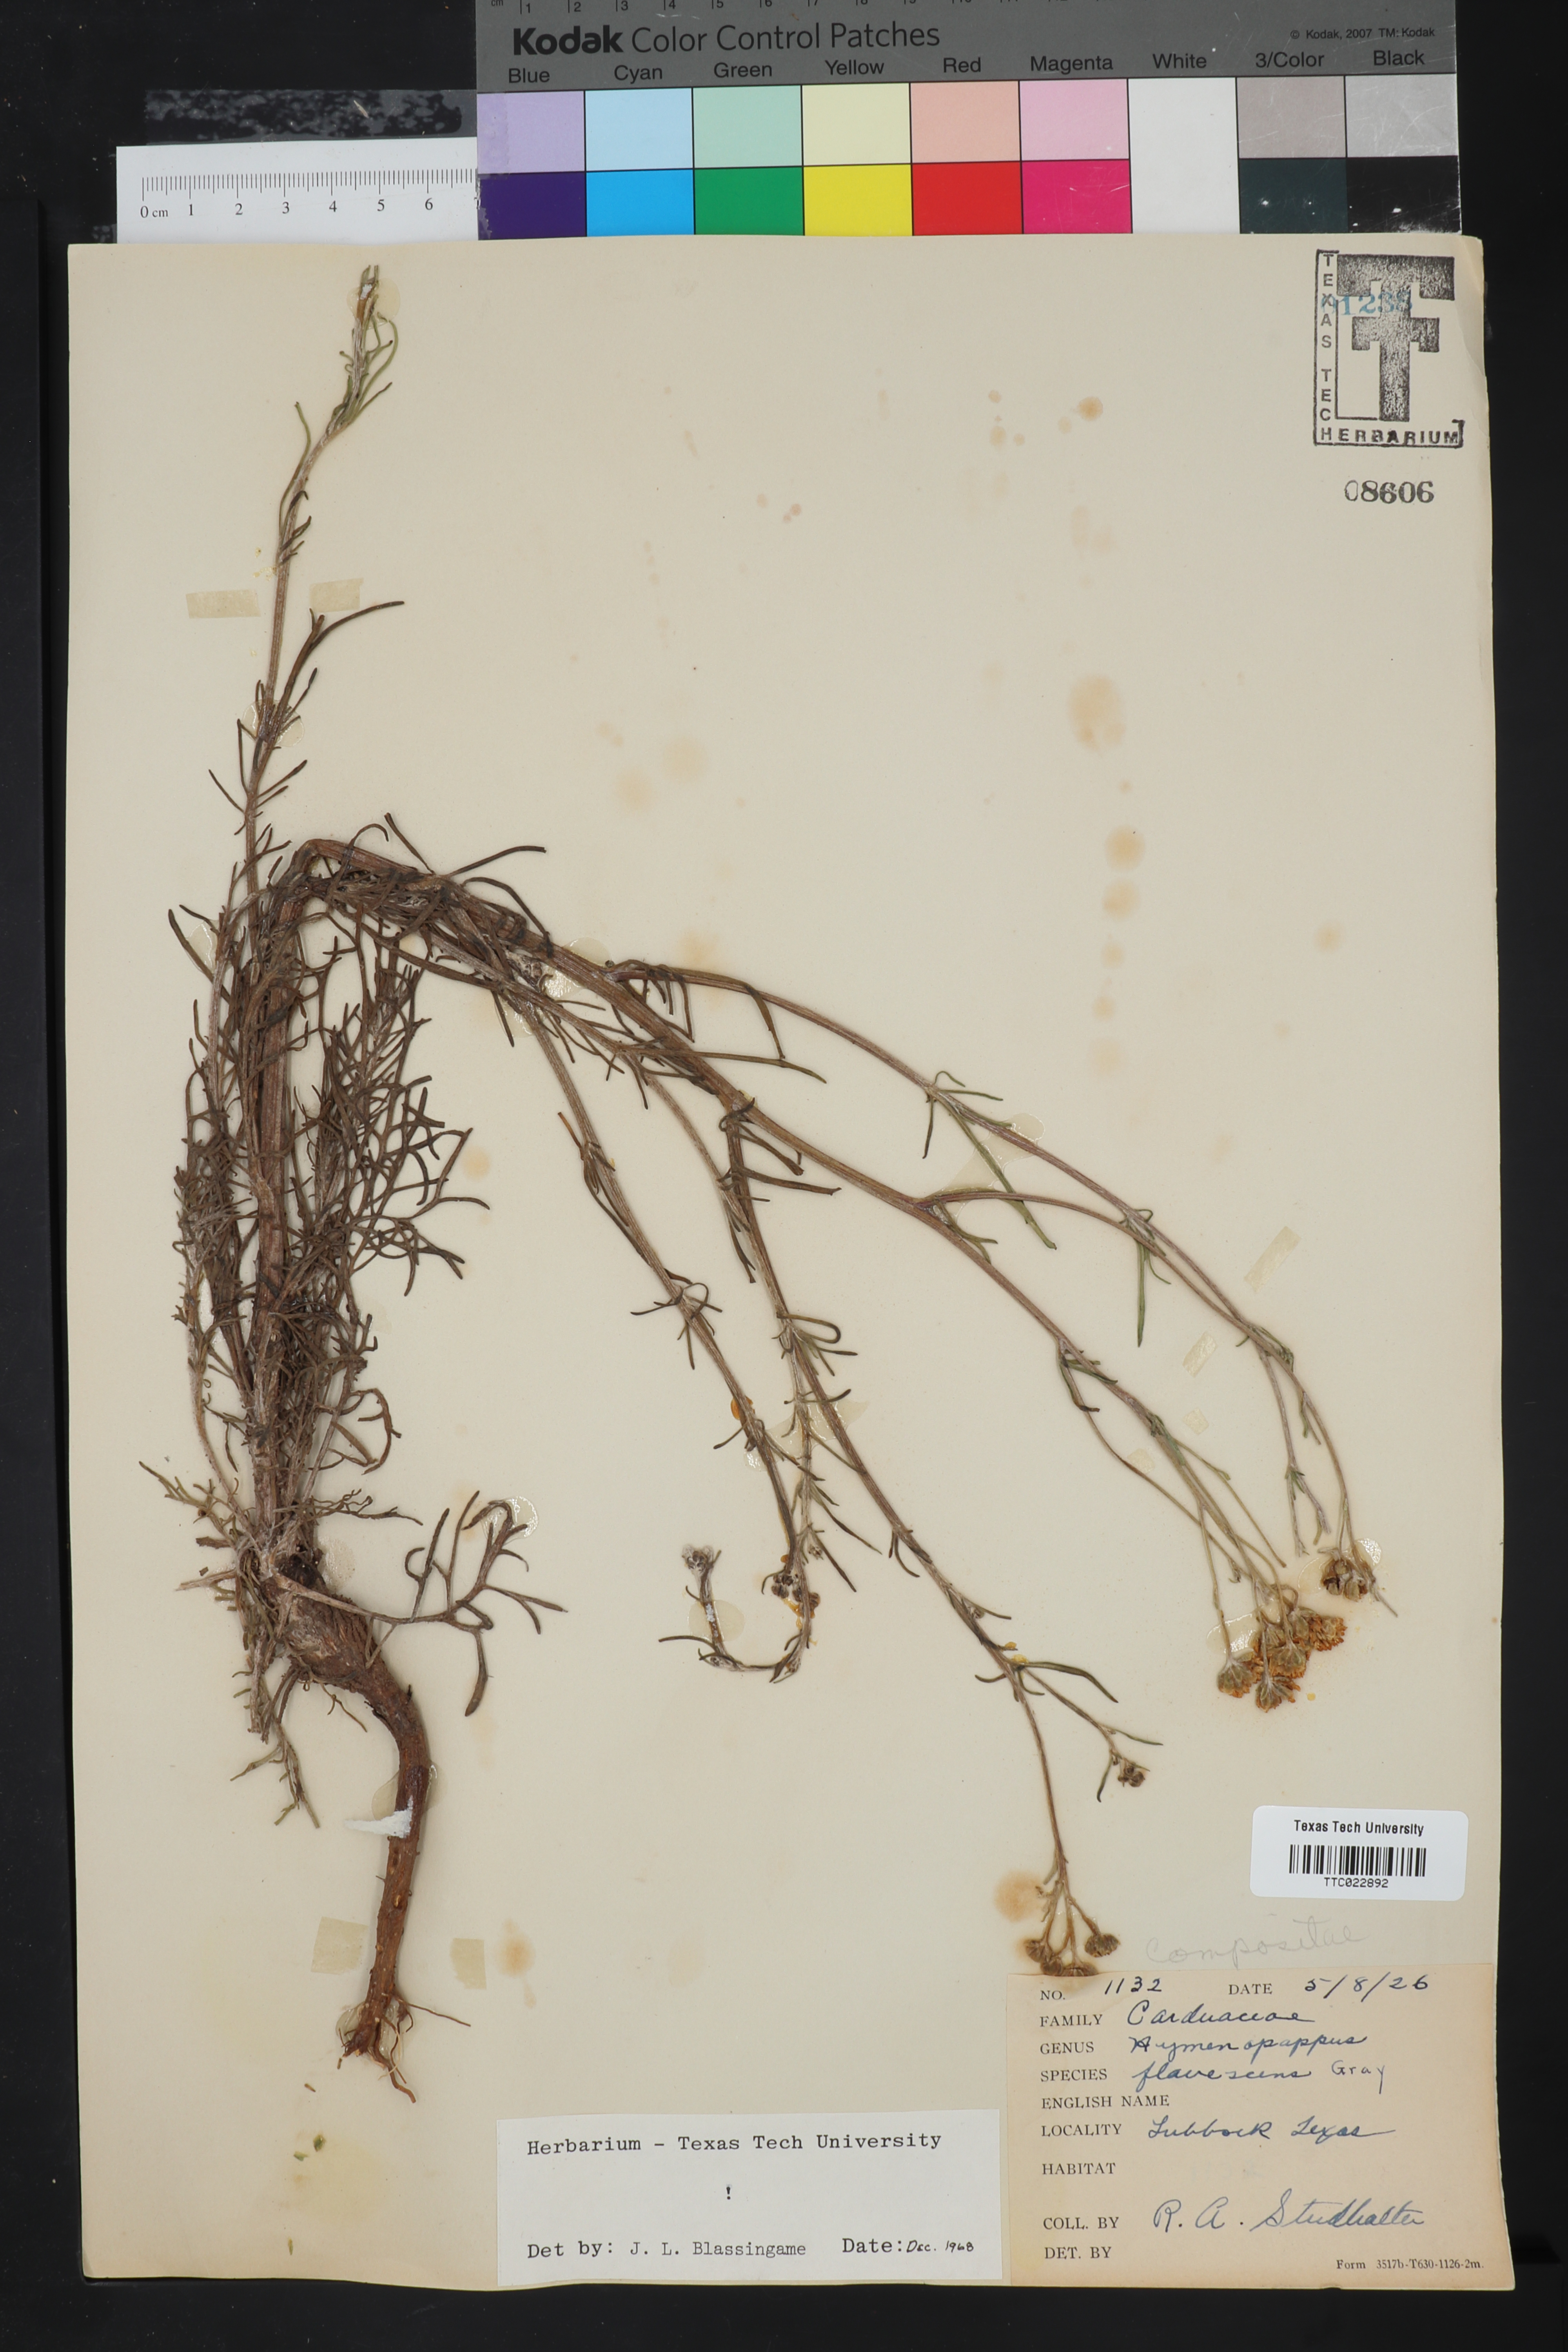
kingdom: Plantae
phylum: Tracheophyta
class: Magnoliopsida
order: Asterales
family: Asteraceae
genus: Hymenopappus
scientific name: Hymenopappus flavescens
